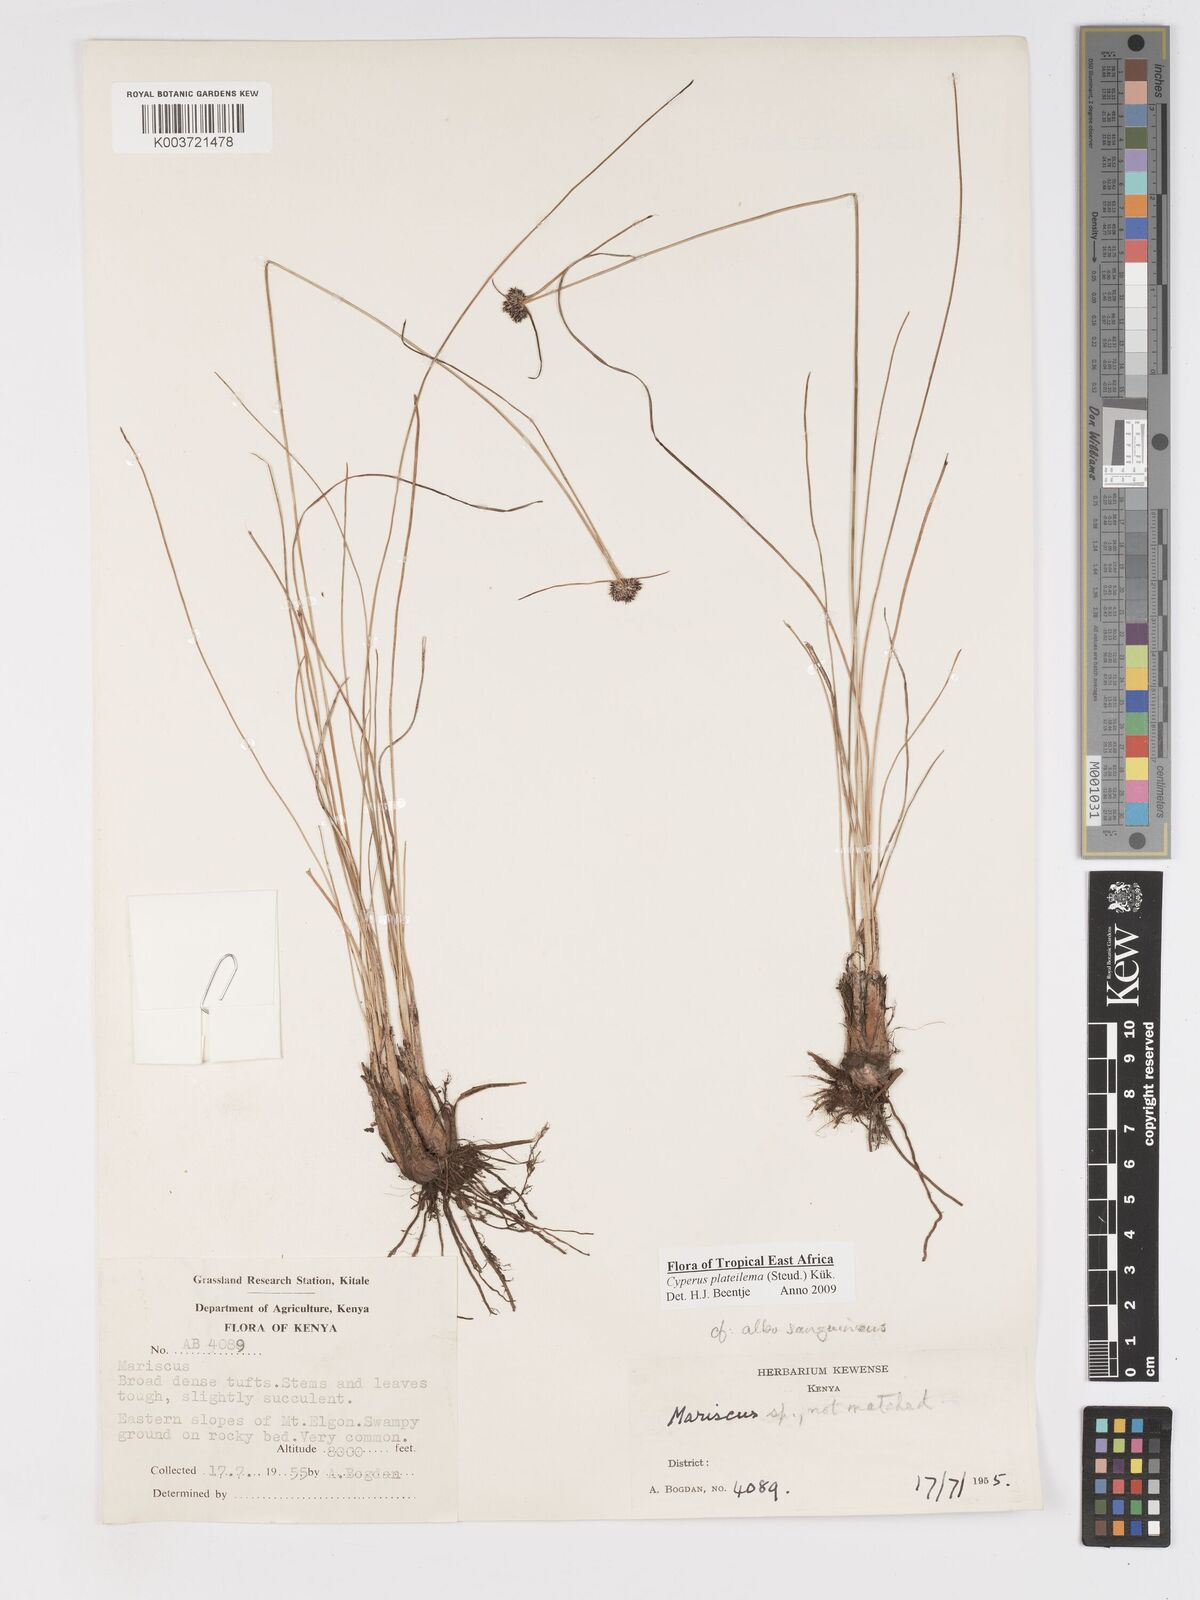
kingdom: Plantae
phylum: Tracheophyta
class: Liliopsida
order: Poales
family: Cyperaceae
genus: Cyperus
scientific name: Cyperus plateilema
